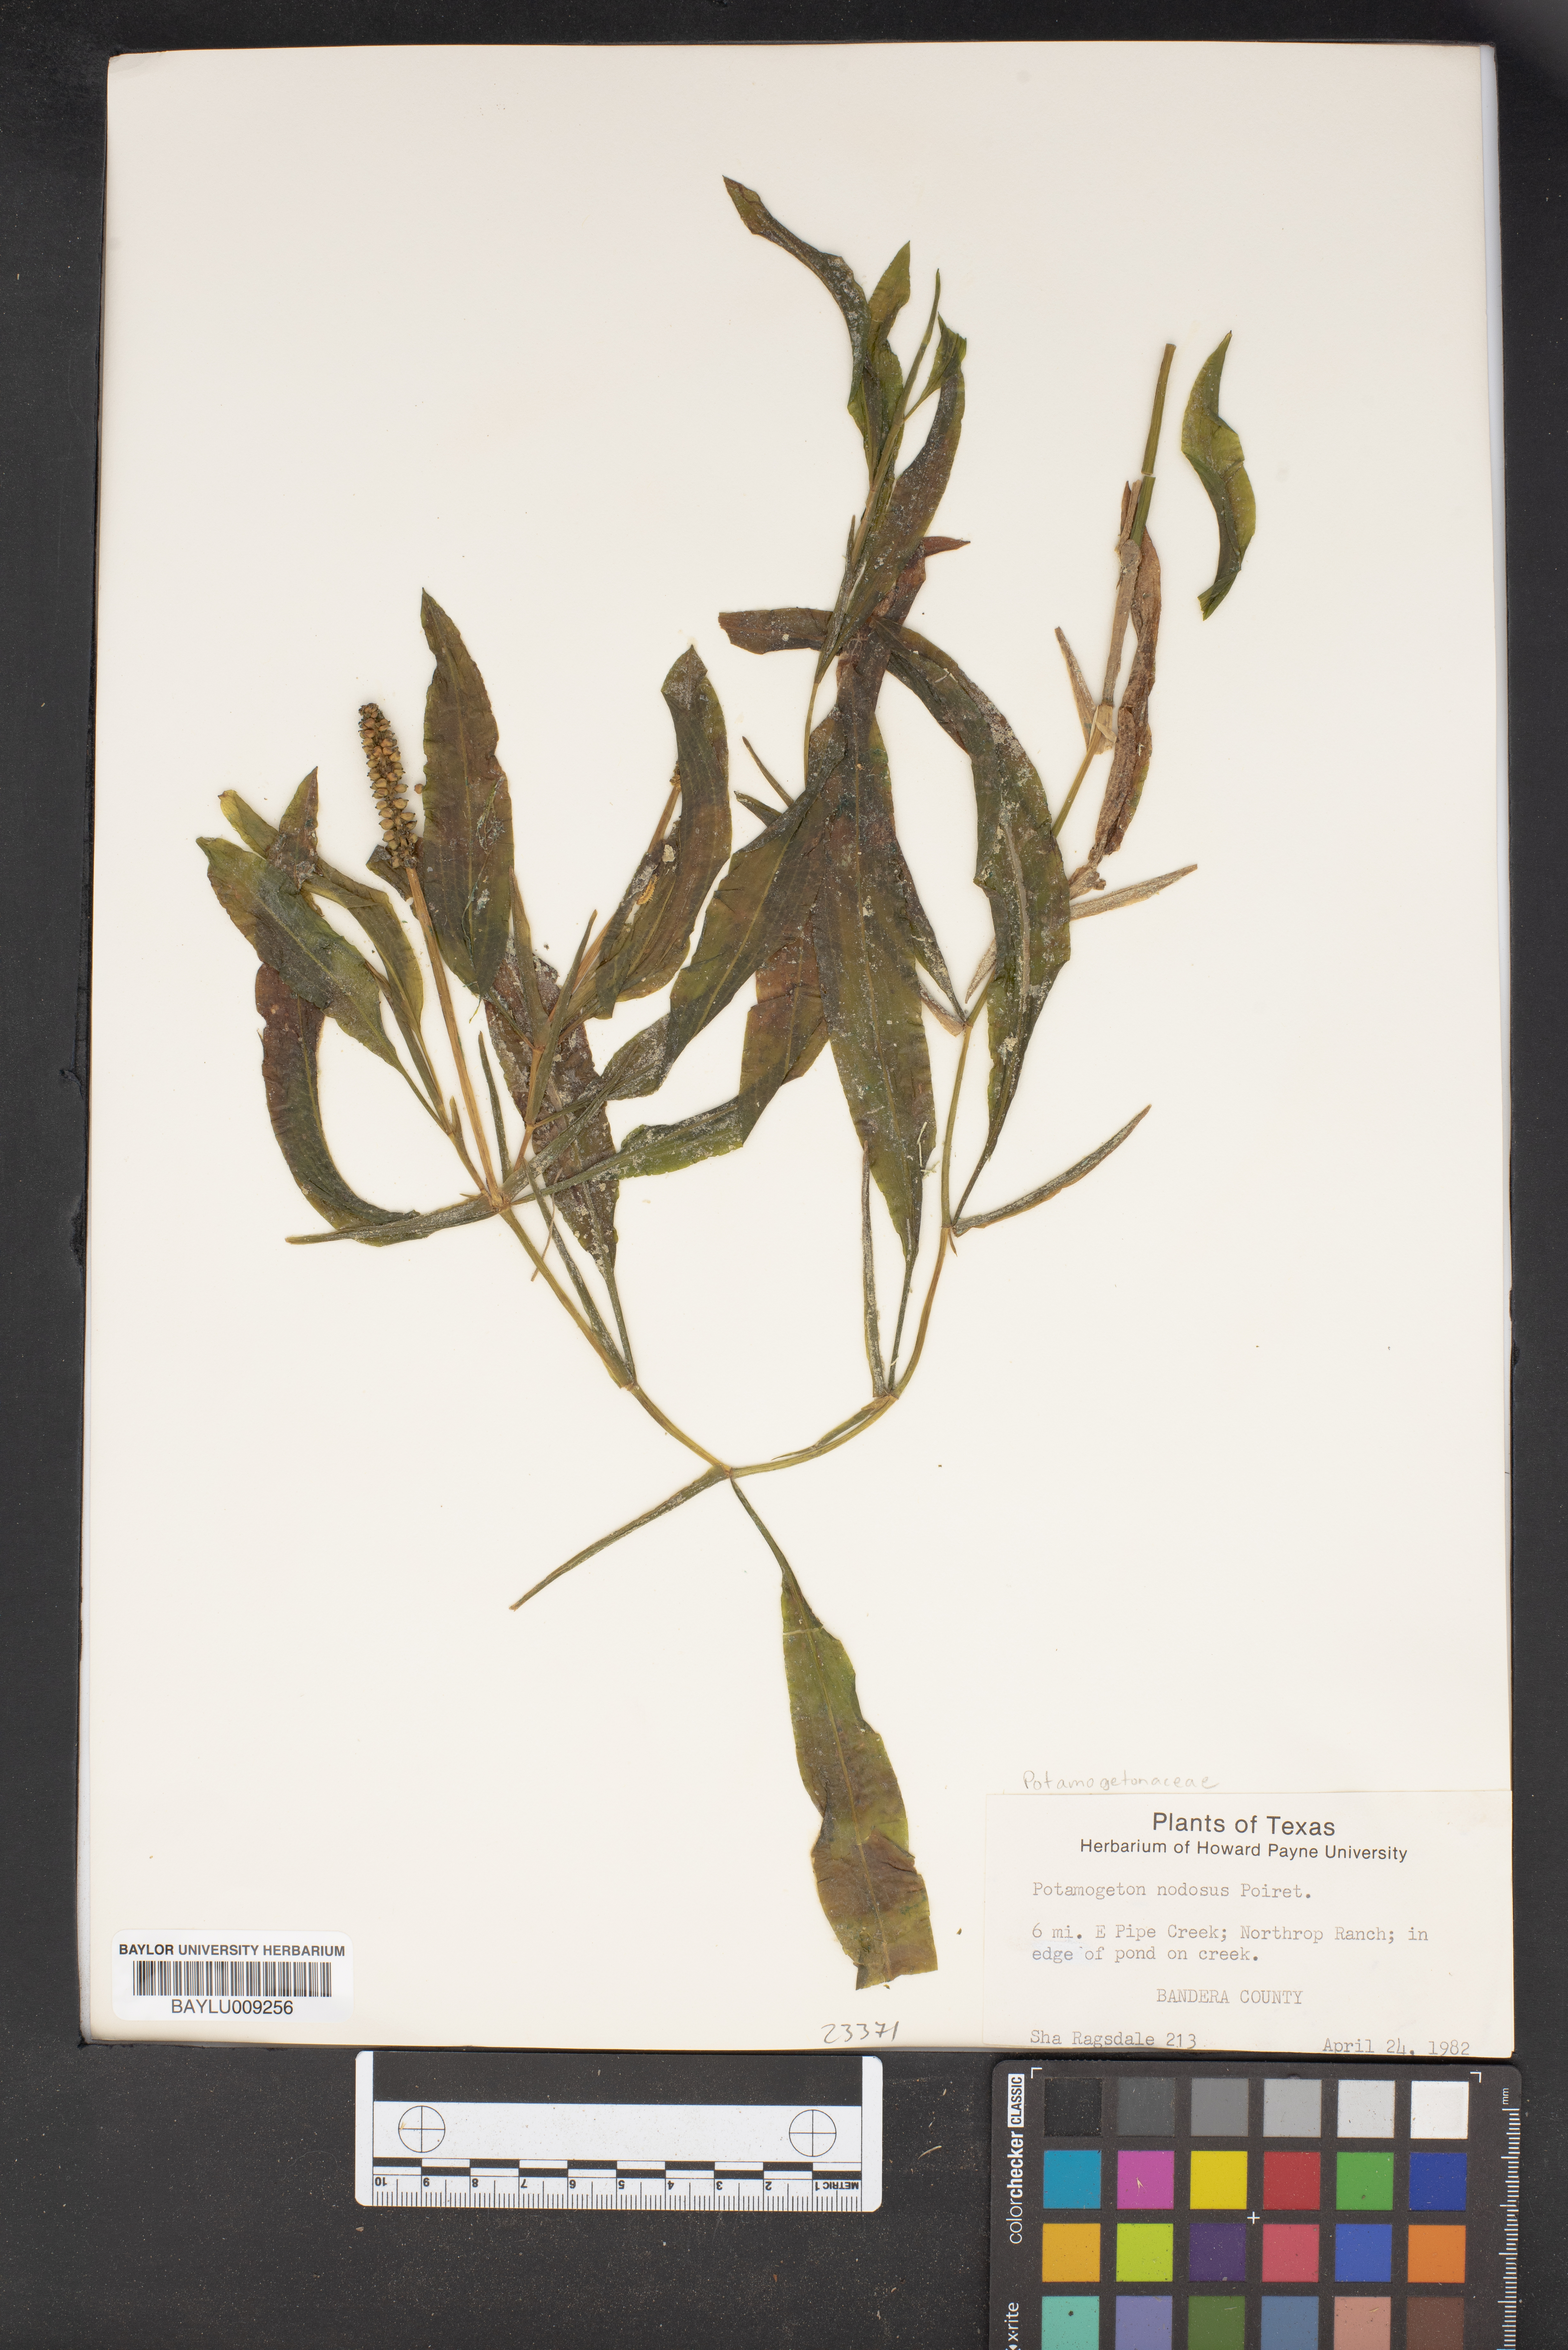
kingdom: Plantae
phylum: Tracheophyta
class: Liliopsida
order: Alismatales
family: Potamogetonaceae
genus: Potamogeton
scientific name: Potamogeton nodosus
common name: Loddon pondweed
